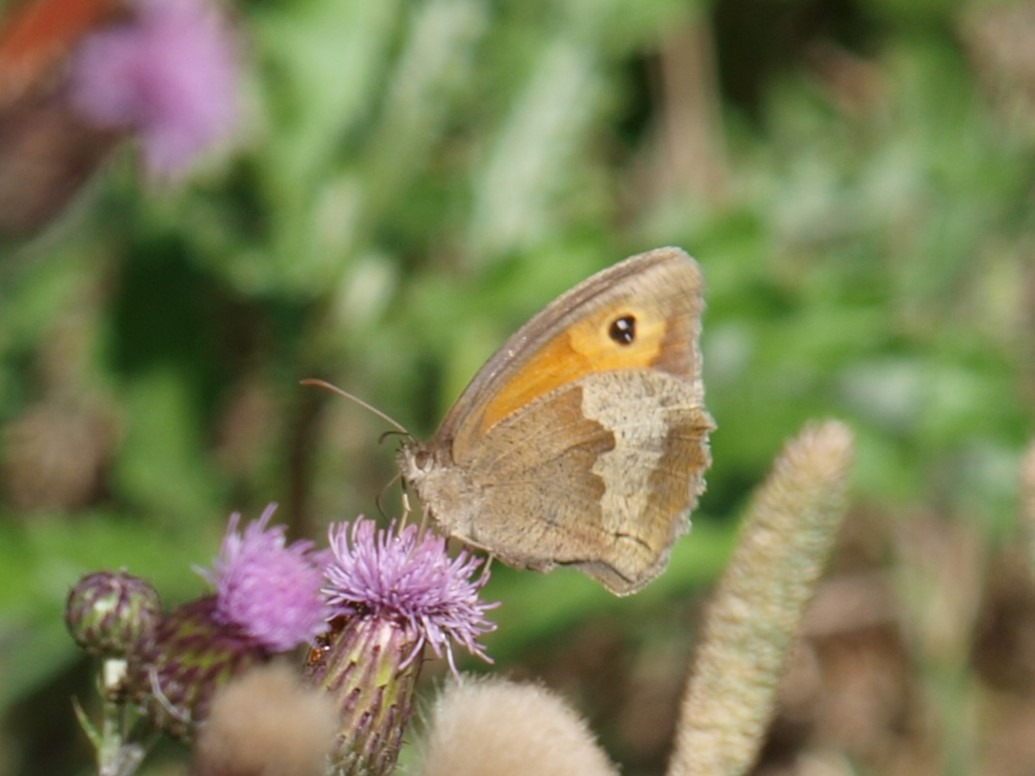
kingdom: Animalia
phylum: Arthropoda
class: Insecta
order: Lepidoptera
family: Nymphalidae
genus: Maniola
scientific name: Maniola jurtina
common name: Græsrandøje
